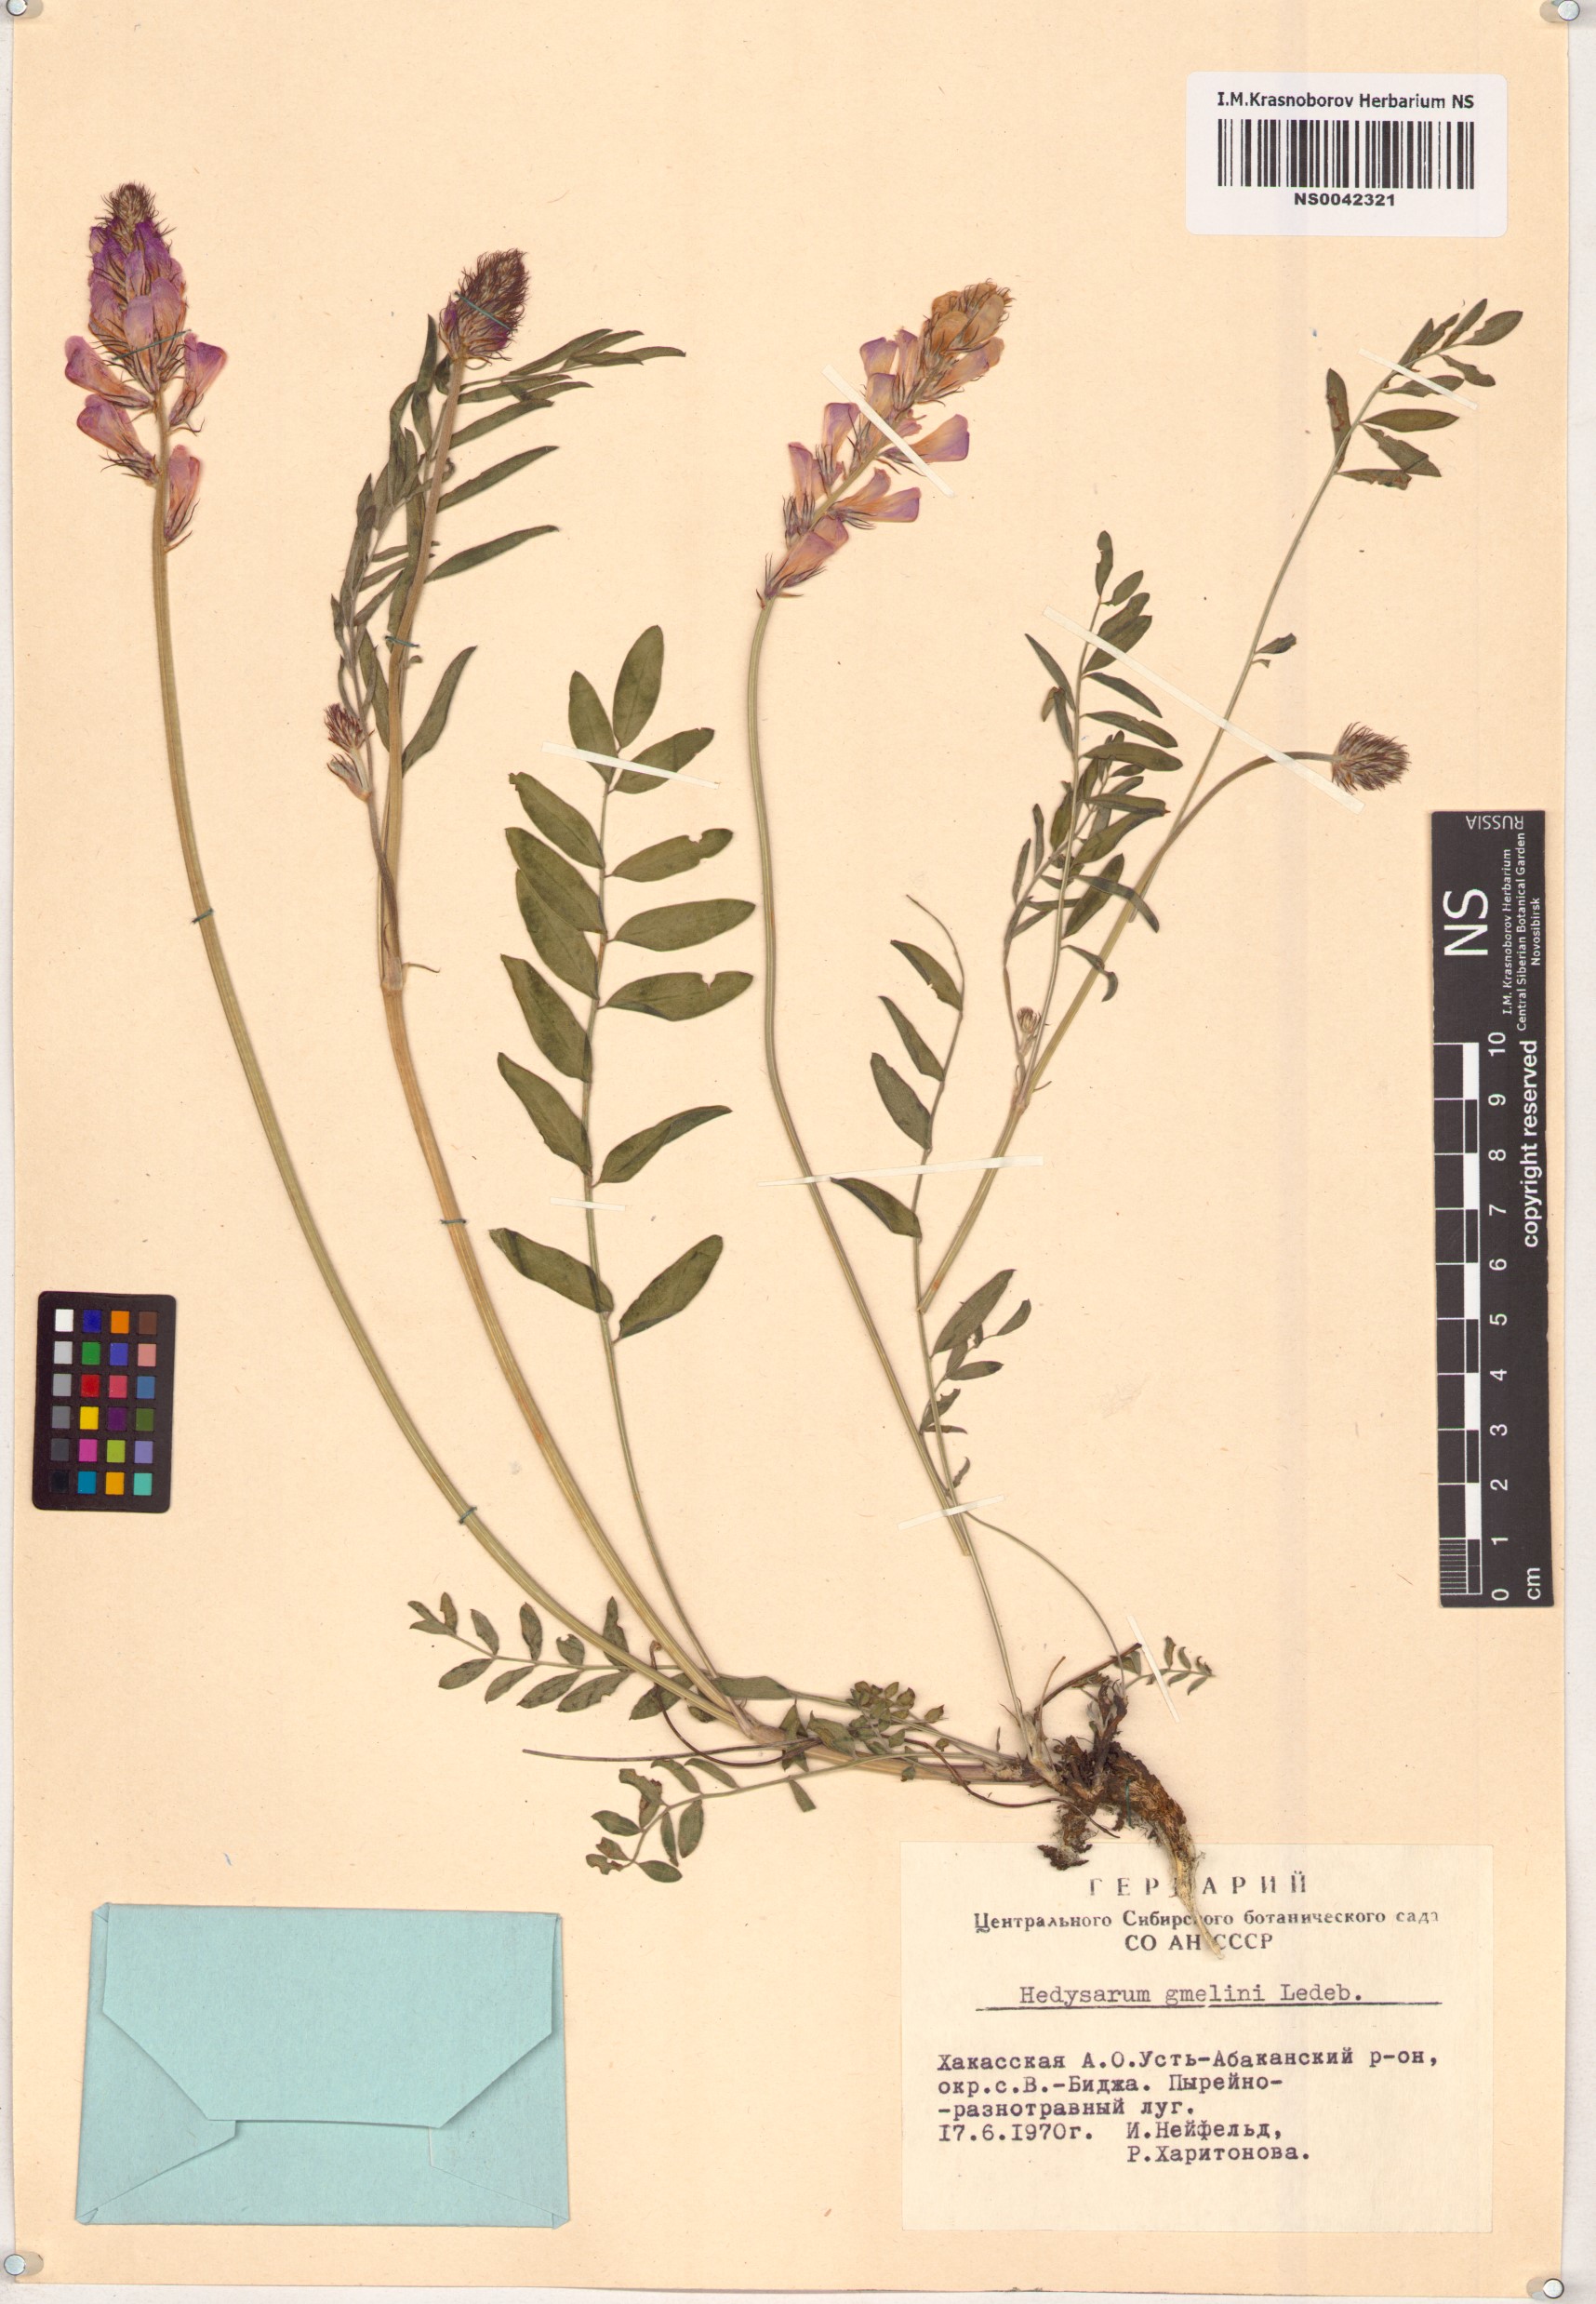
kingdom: Plantae
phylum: Tracheophyta
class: Magnoliopsida
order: Fabales
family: Fabaceae
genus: Hedysarum
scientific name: Hedysarum gmelinii
